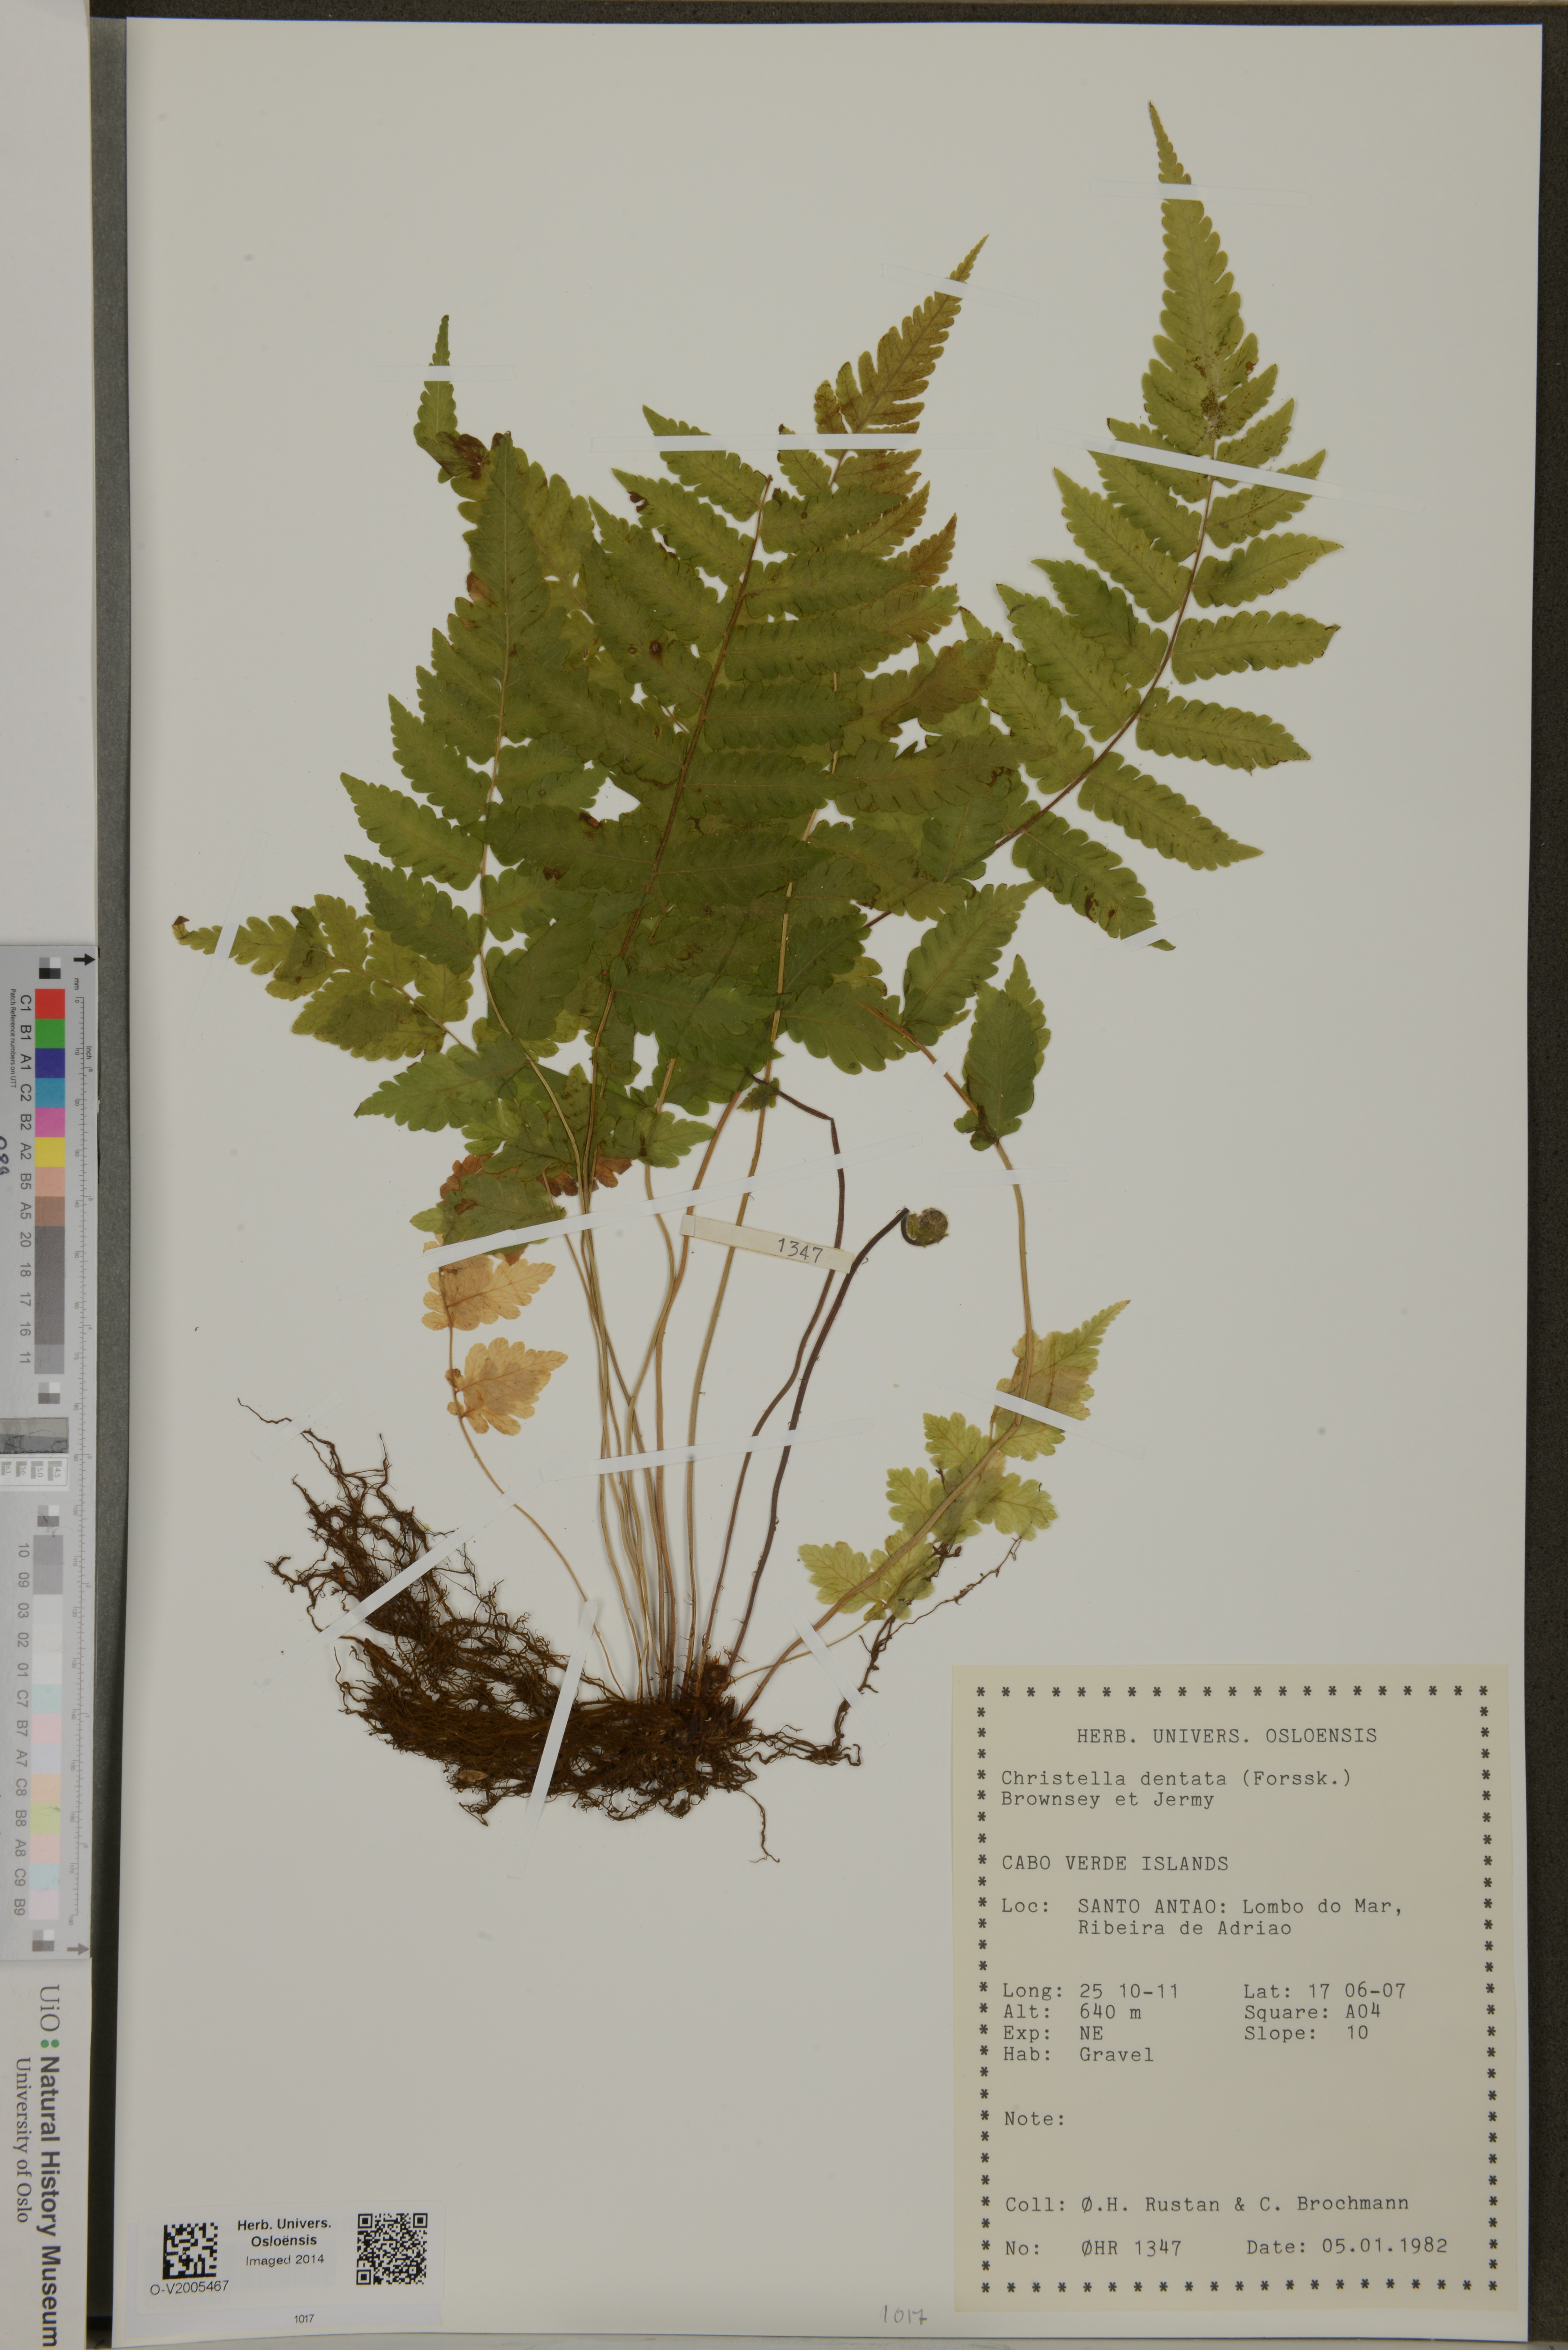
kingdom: Plantae
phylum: Tracheophyta
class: Polypodiopsida
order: Polypodiales
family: Thelypteridaceae
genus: Christella
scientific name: Christella dentata
